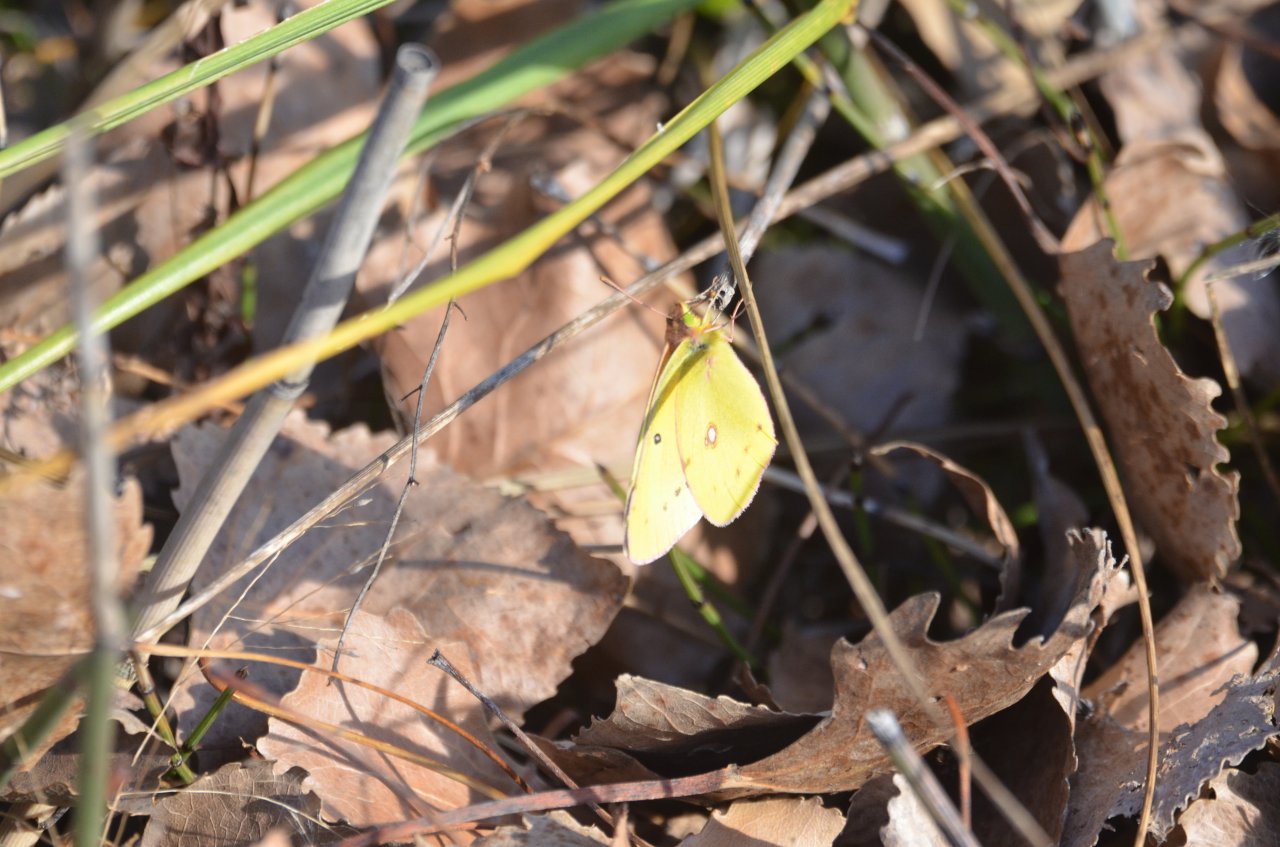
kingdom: Animalia
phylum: Arthropoda
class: Insecta
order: Lepidoptera
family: Pieridae
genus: Colias
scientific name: Colias
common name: Clouded Yellows
